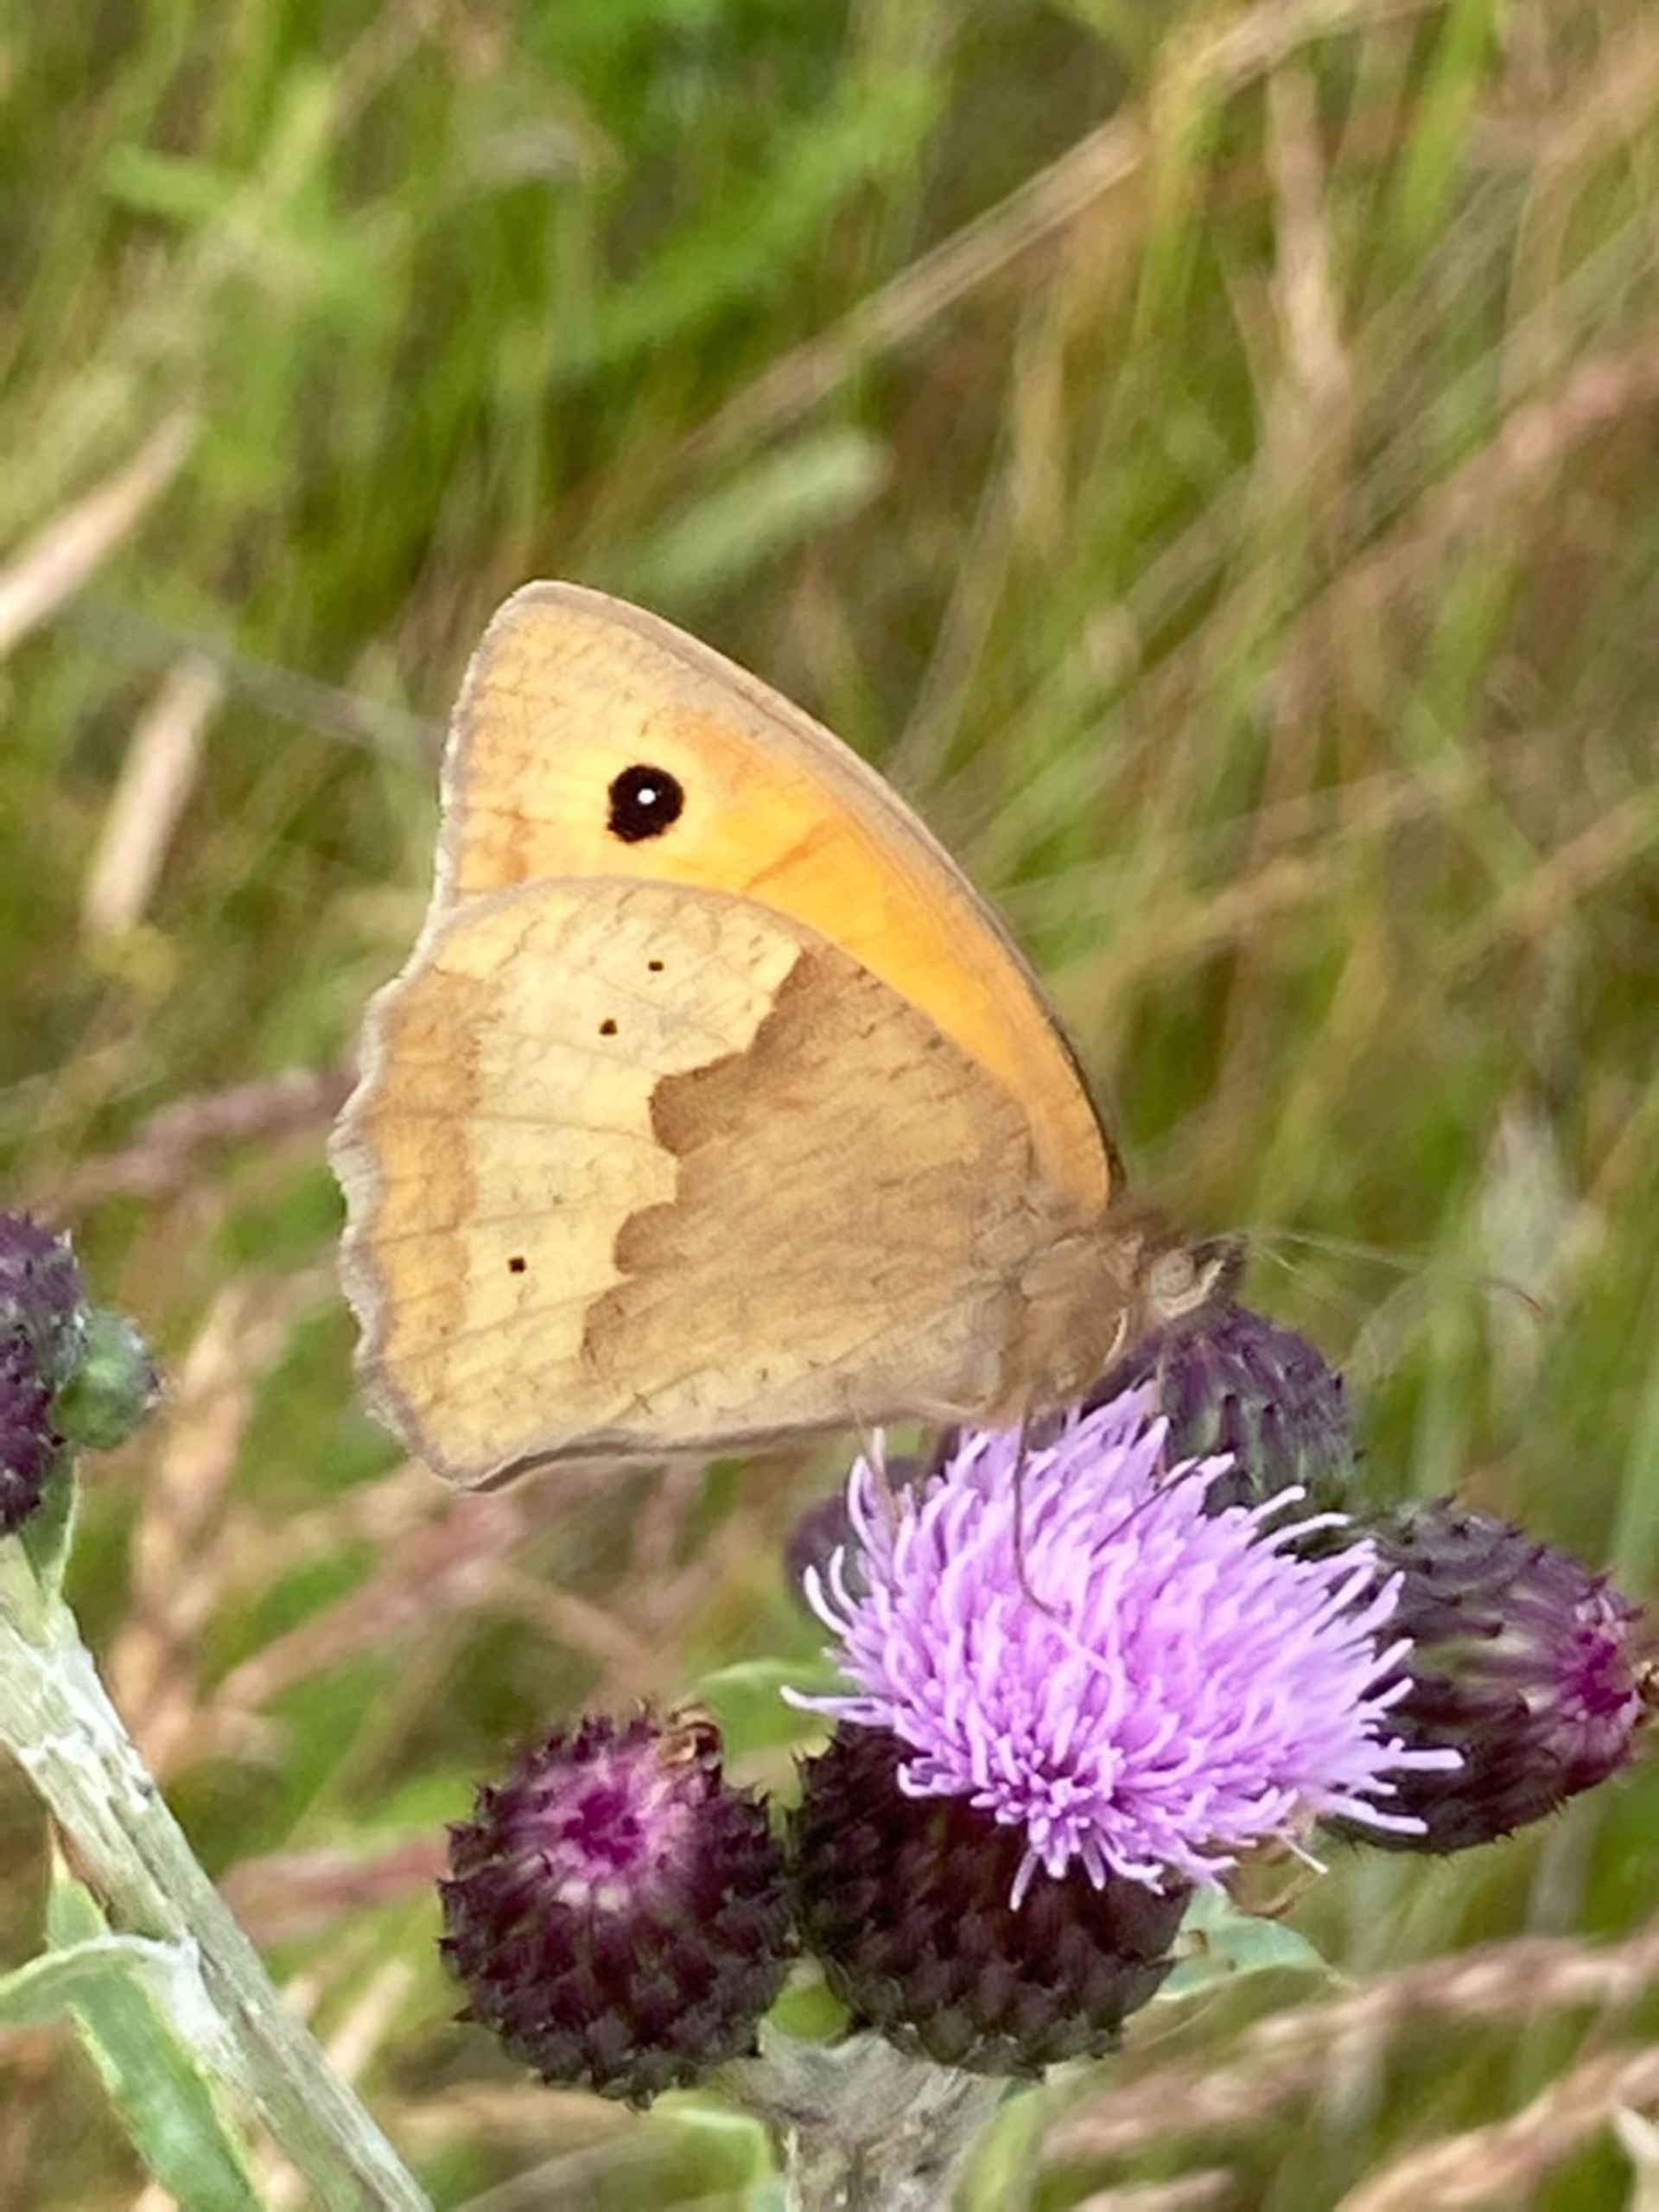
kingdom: Animalia
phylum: Arthropoda
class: Insecta
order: Lepidoptera
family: Nymphalidae
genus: Maniola
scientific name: Maniola jurtina
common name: Græsrandøje
